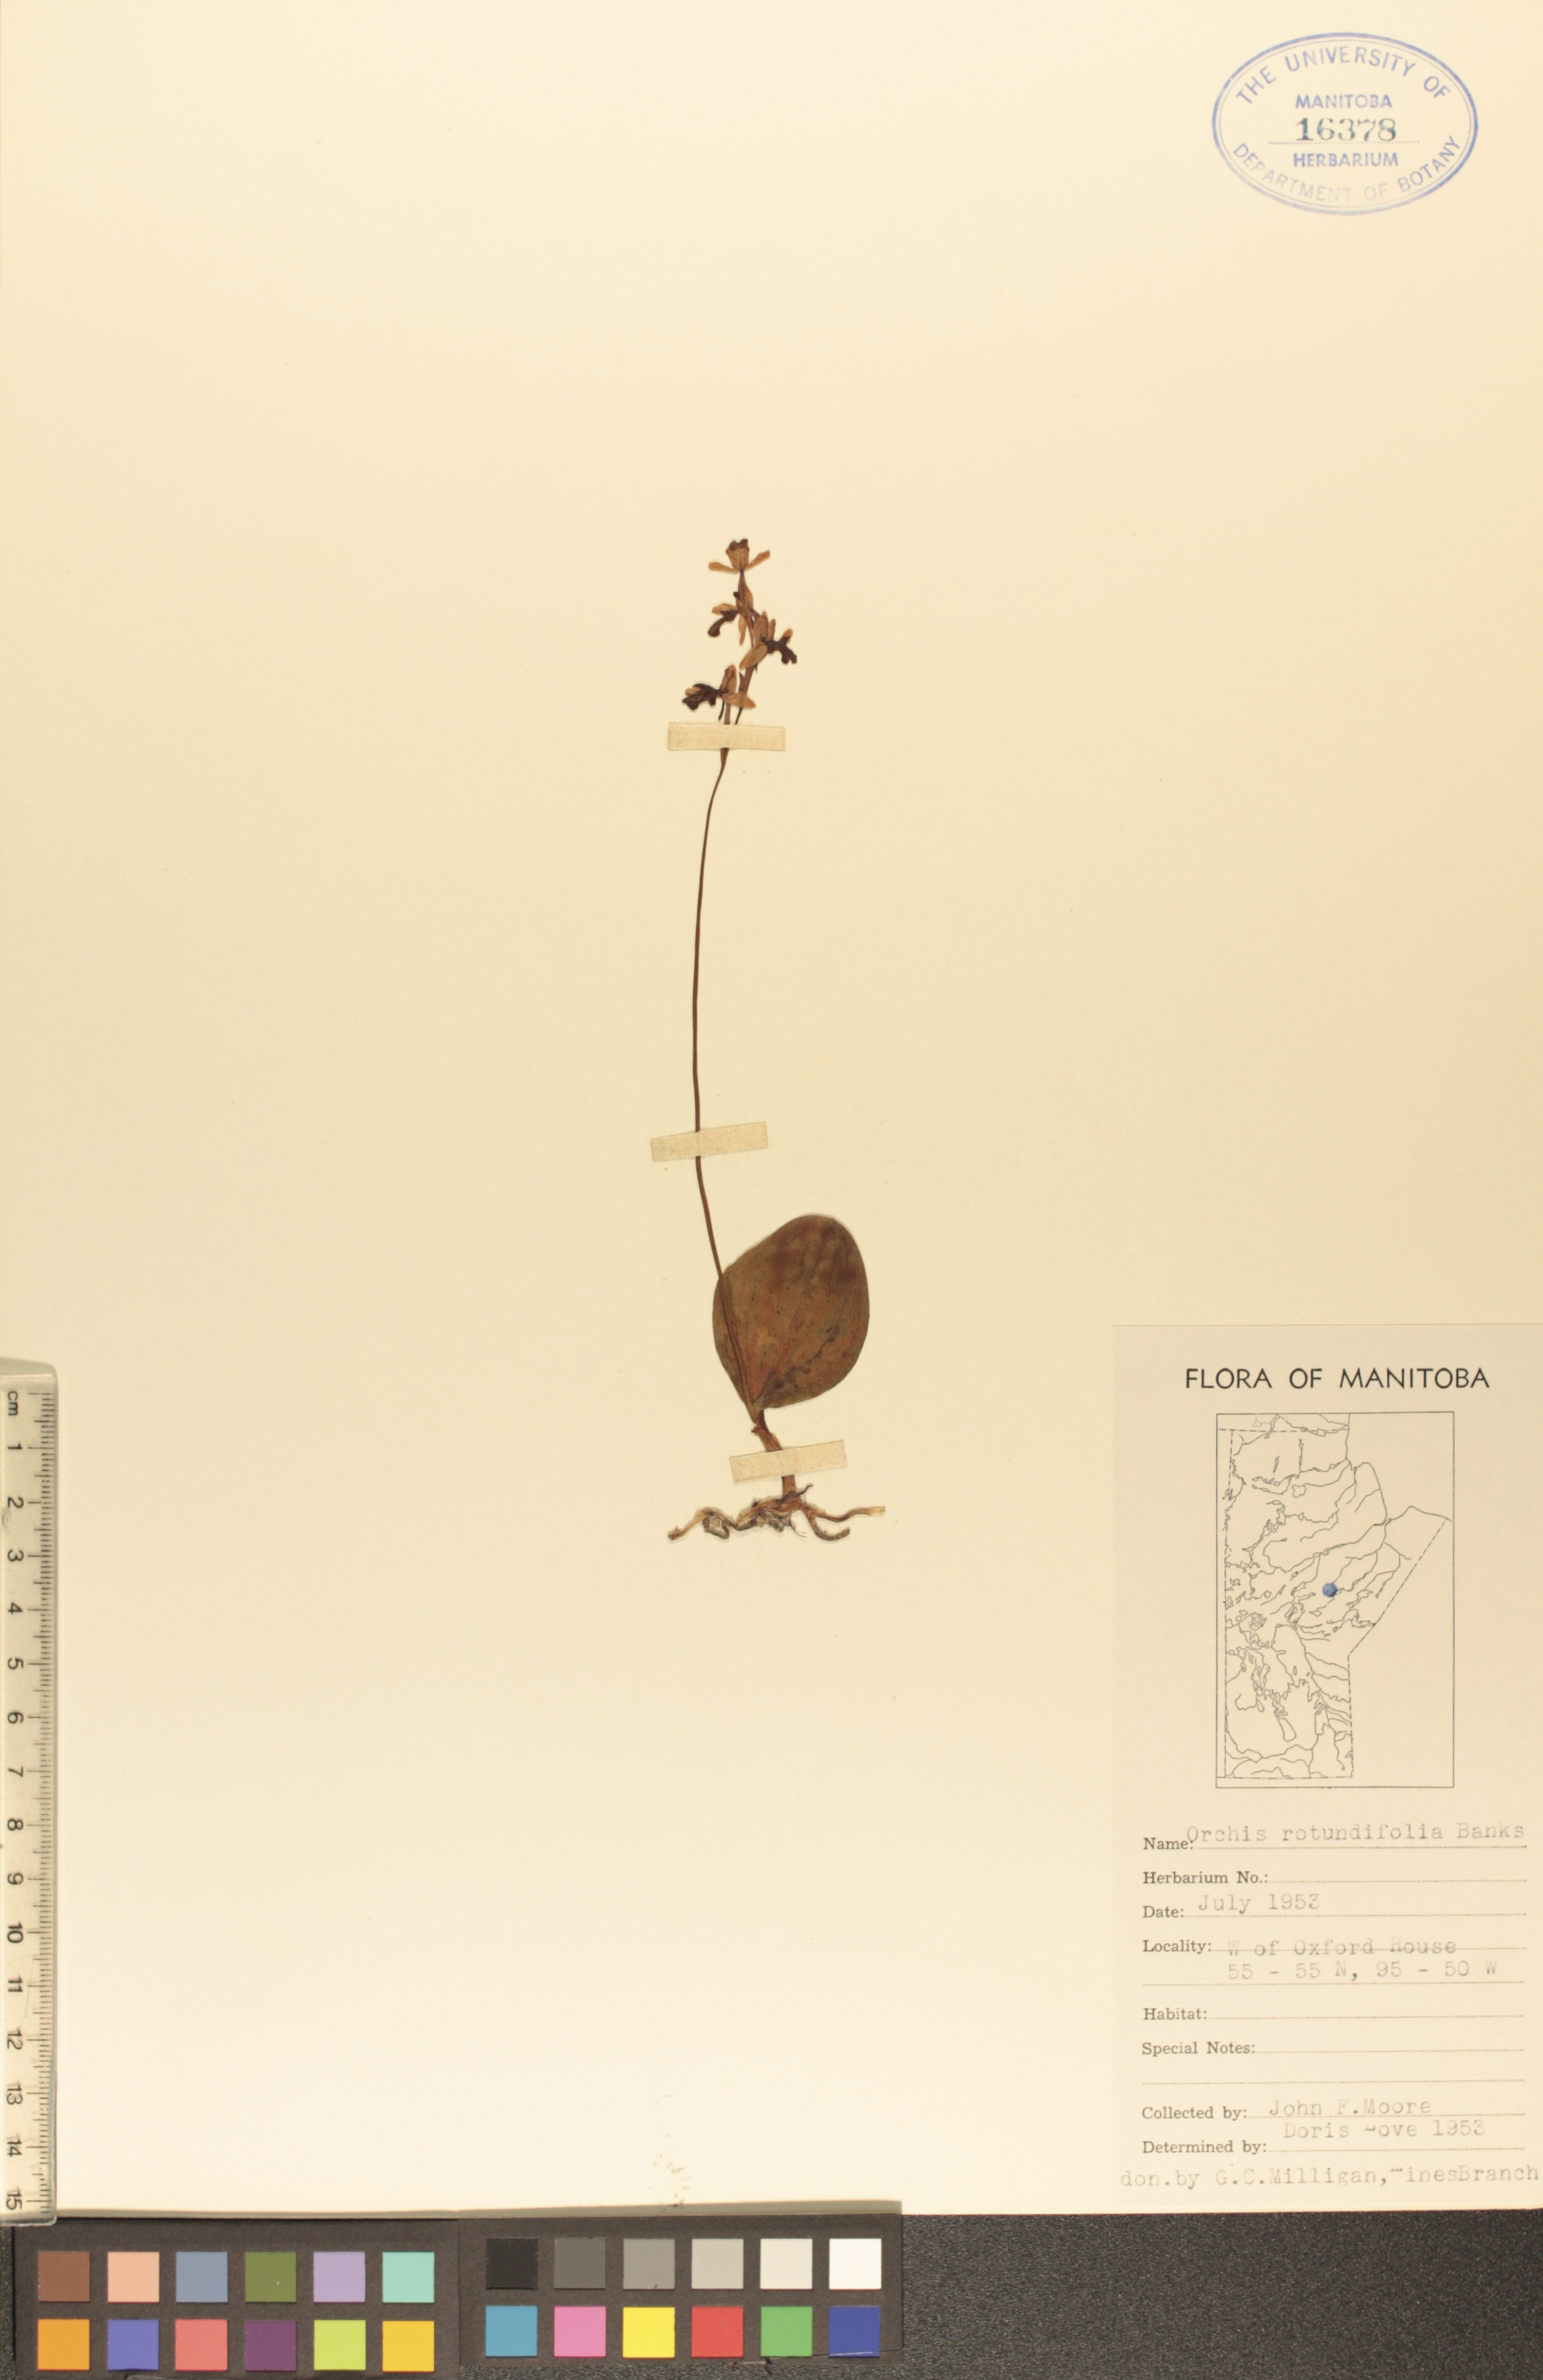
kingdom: Plantae
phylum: Tracheophyta
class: Liliopsida
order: Asparagales
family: Orchidaceae
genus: Galearis
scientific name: Galearis rotundifolia
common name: One-leaved orchis
